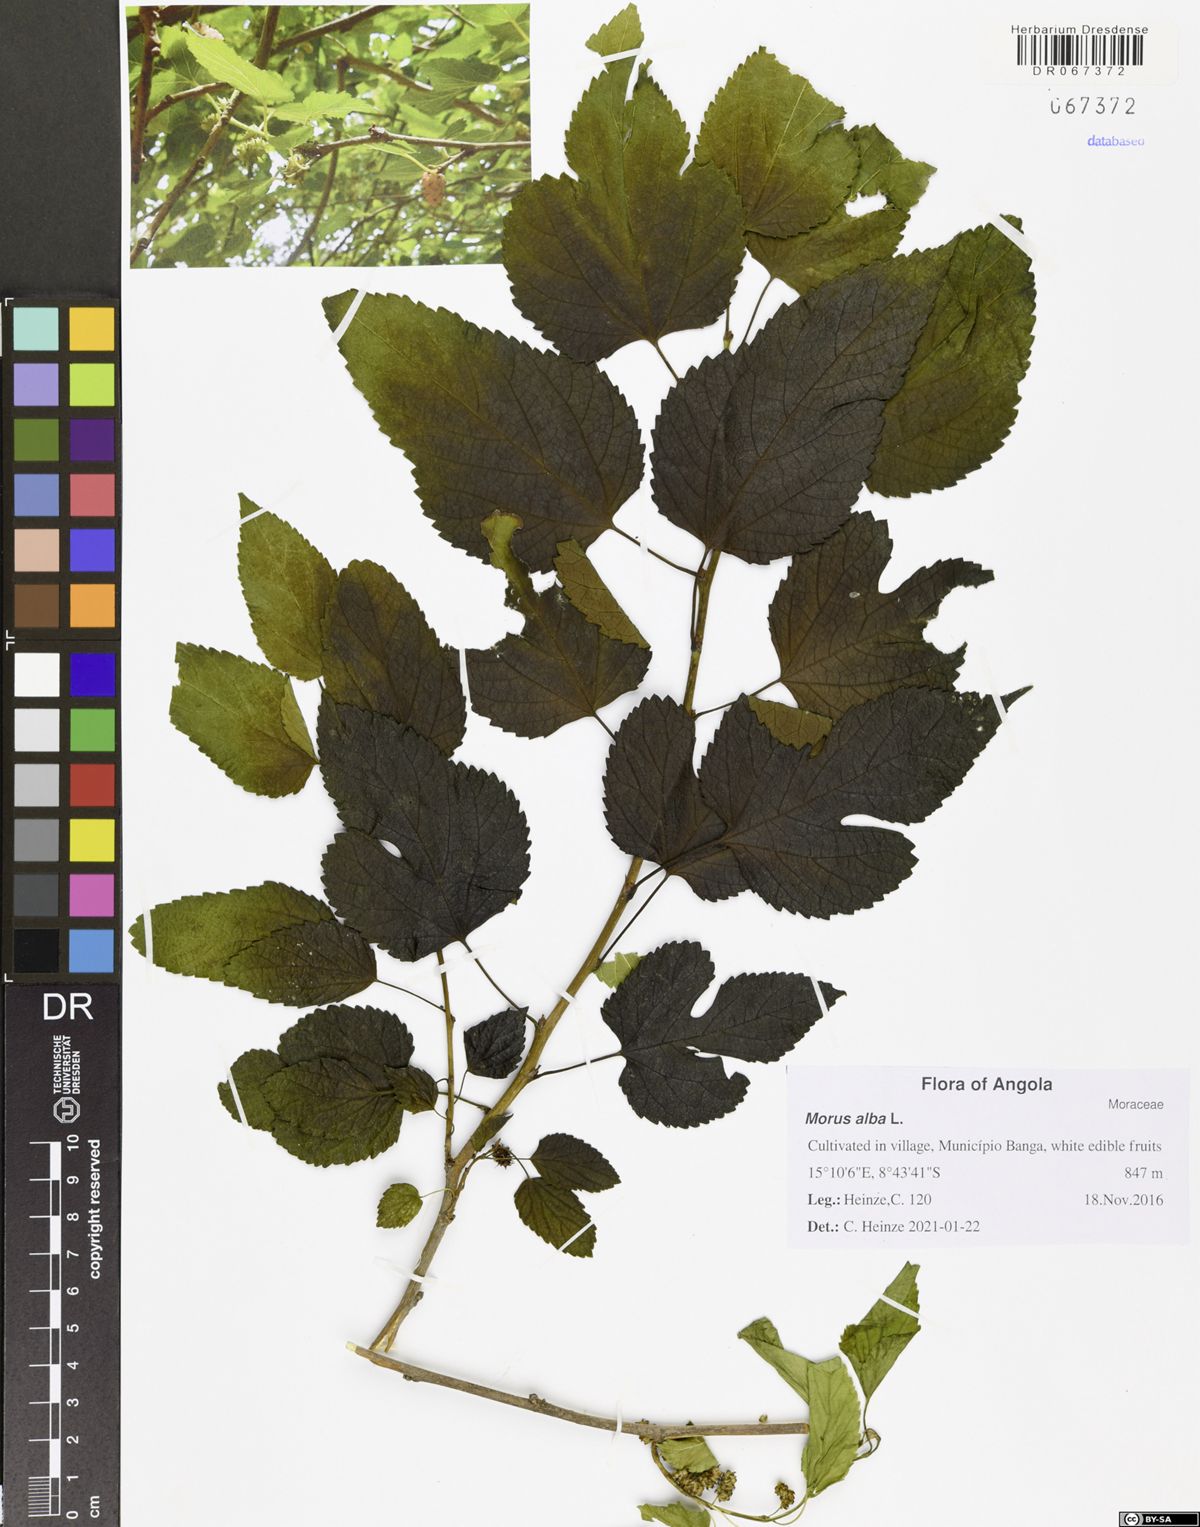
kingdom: Plantae
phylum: Tracheophyta
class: Magnoliopsida
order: Rosales
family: Moraceae
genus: Morus
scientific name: Morus alba
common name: White mulberry
